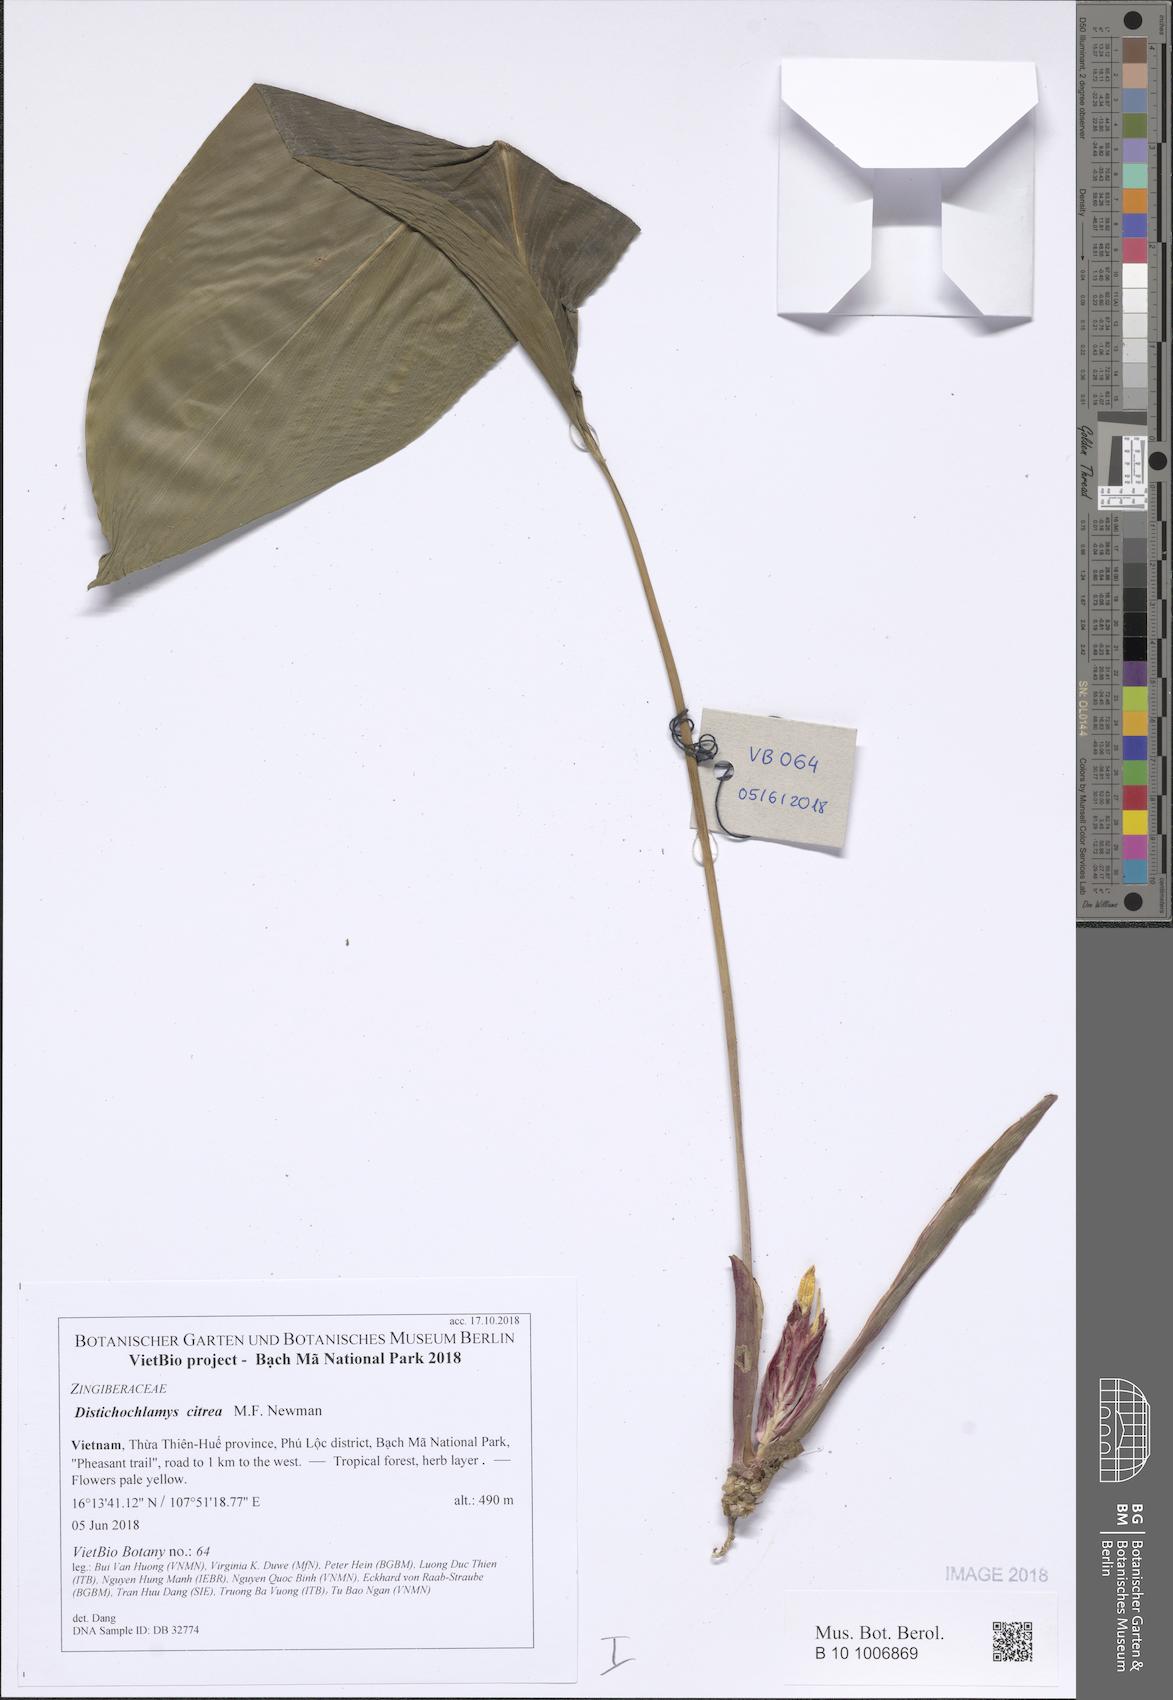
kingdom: Plantae
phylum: Tracheophyta
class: Liliopsida
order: Zingiberales
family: Zingiberaceae
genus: Distichochlamys
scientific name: Distichochlamys citrea
